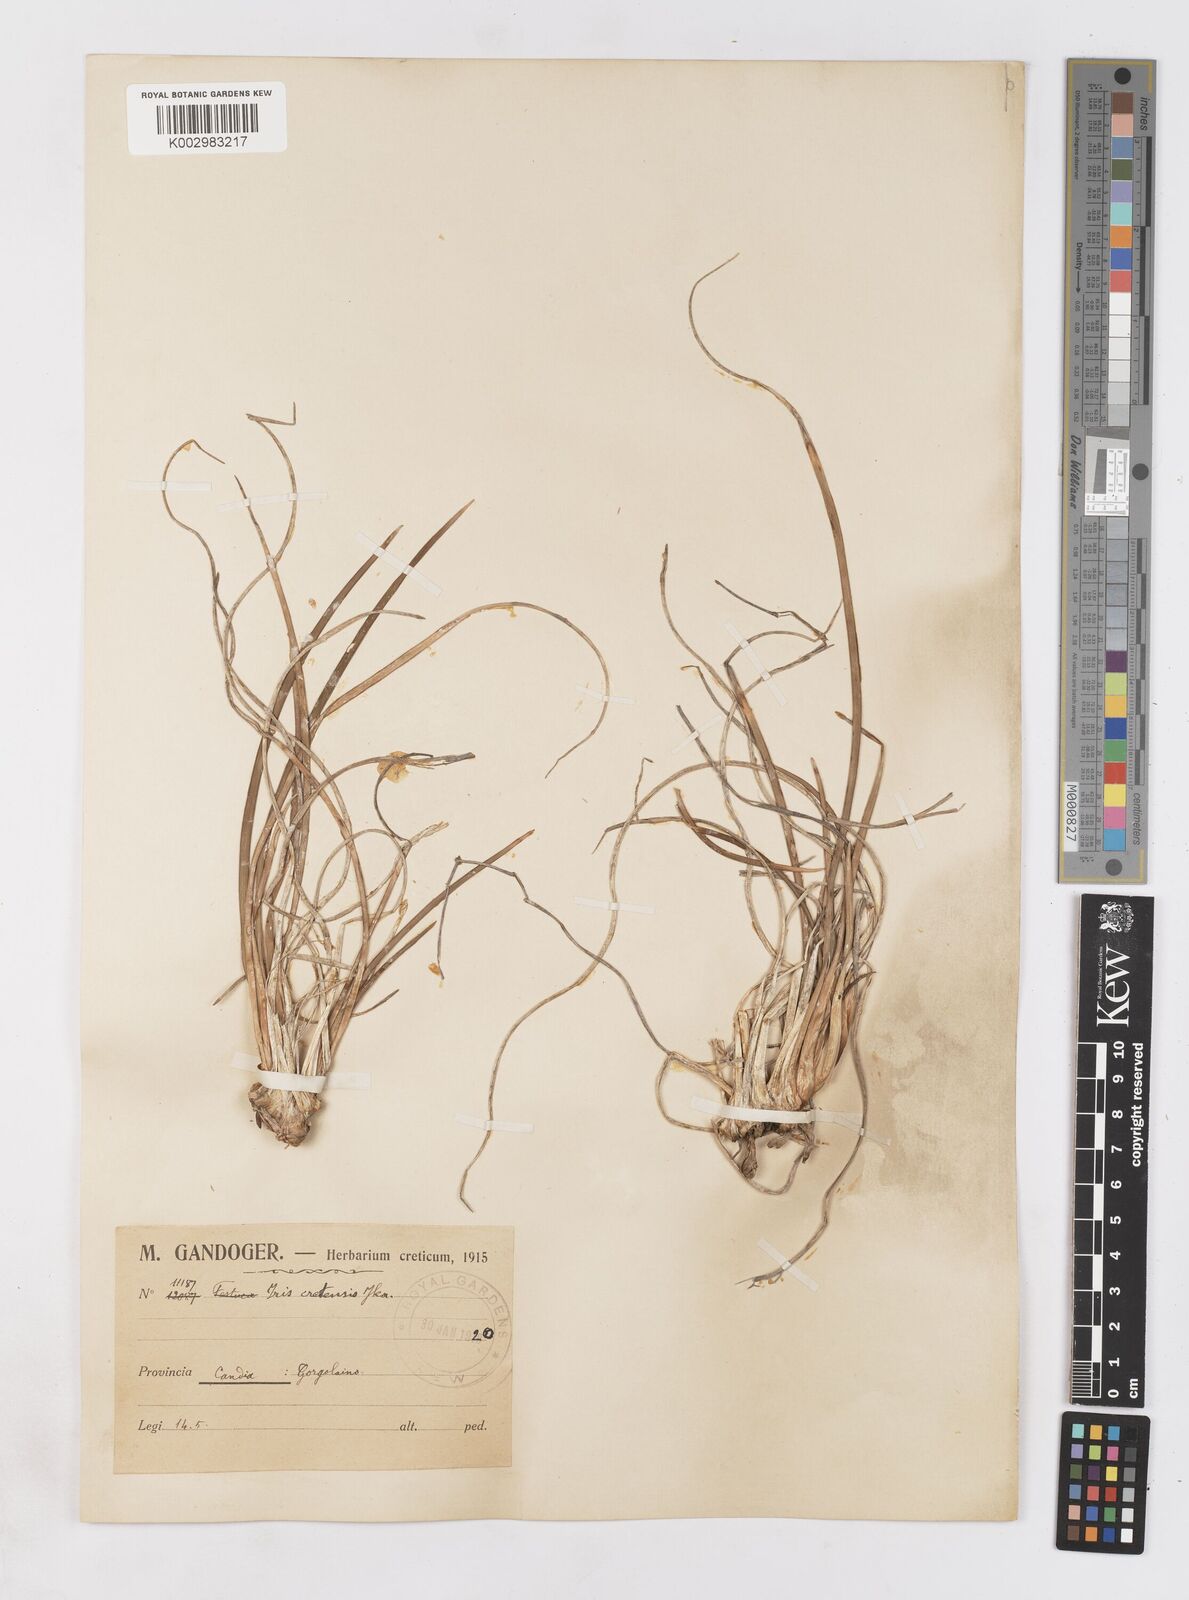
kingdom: Plantae
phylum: Tracheophyta
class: Liliopsida
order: Asparagales
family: Iridaceae
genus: Iris
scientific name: Iris unguicularis
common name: Algerian iris
